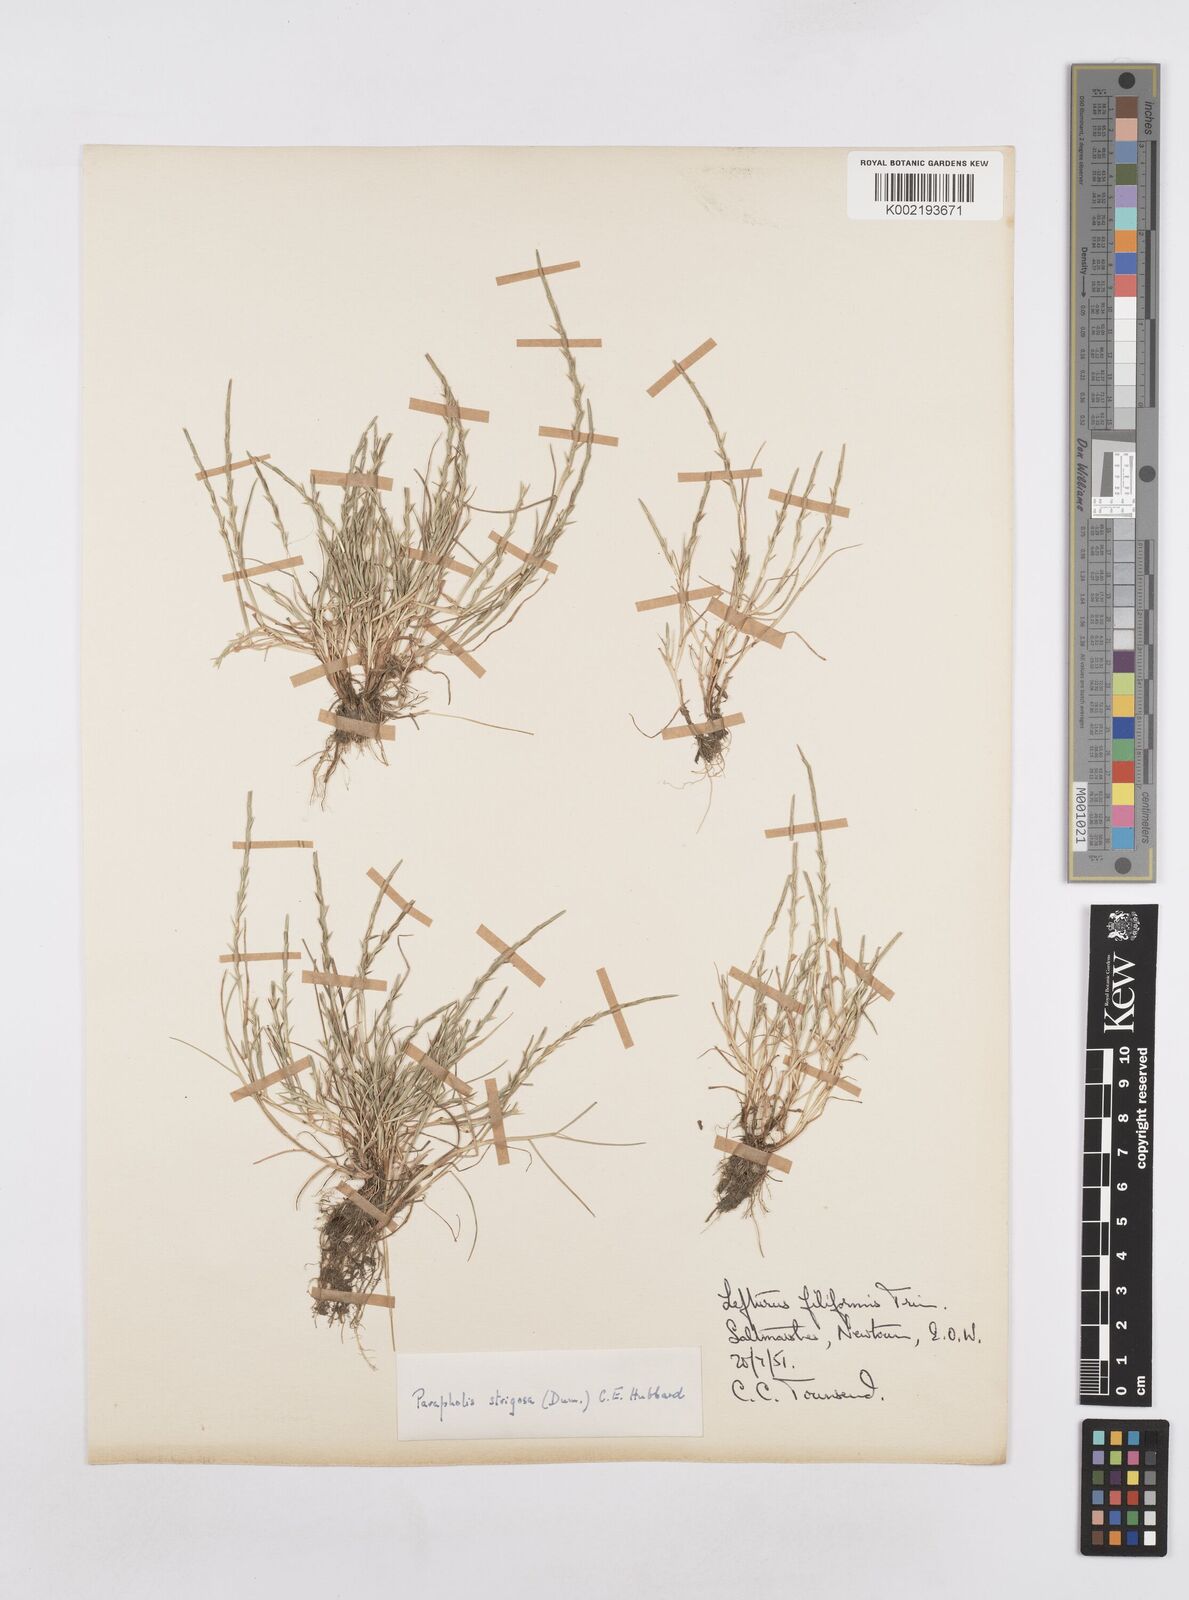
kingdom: Plantae
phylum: Tracheophyta
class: Liliopsida
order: Poales
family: Poaceae
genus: Parapholis
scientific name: Parapholis strigosa
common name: Hard-grass
